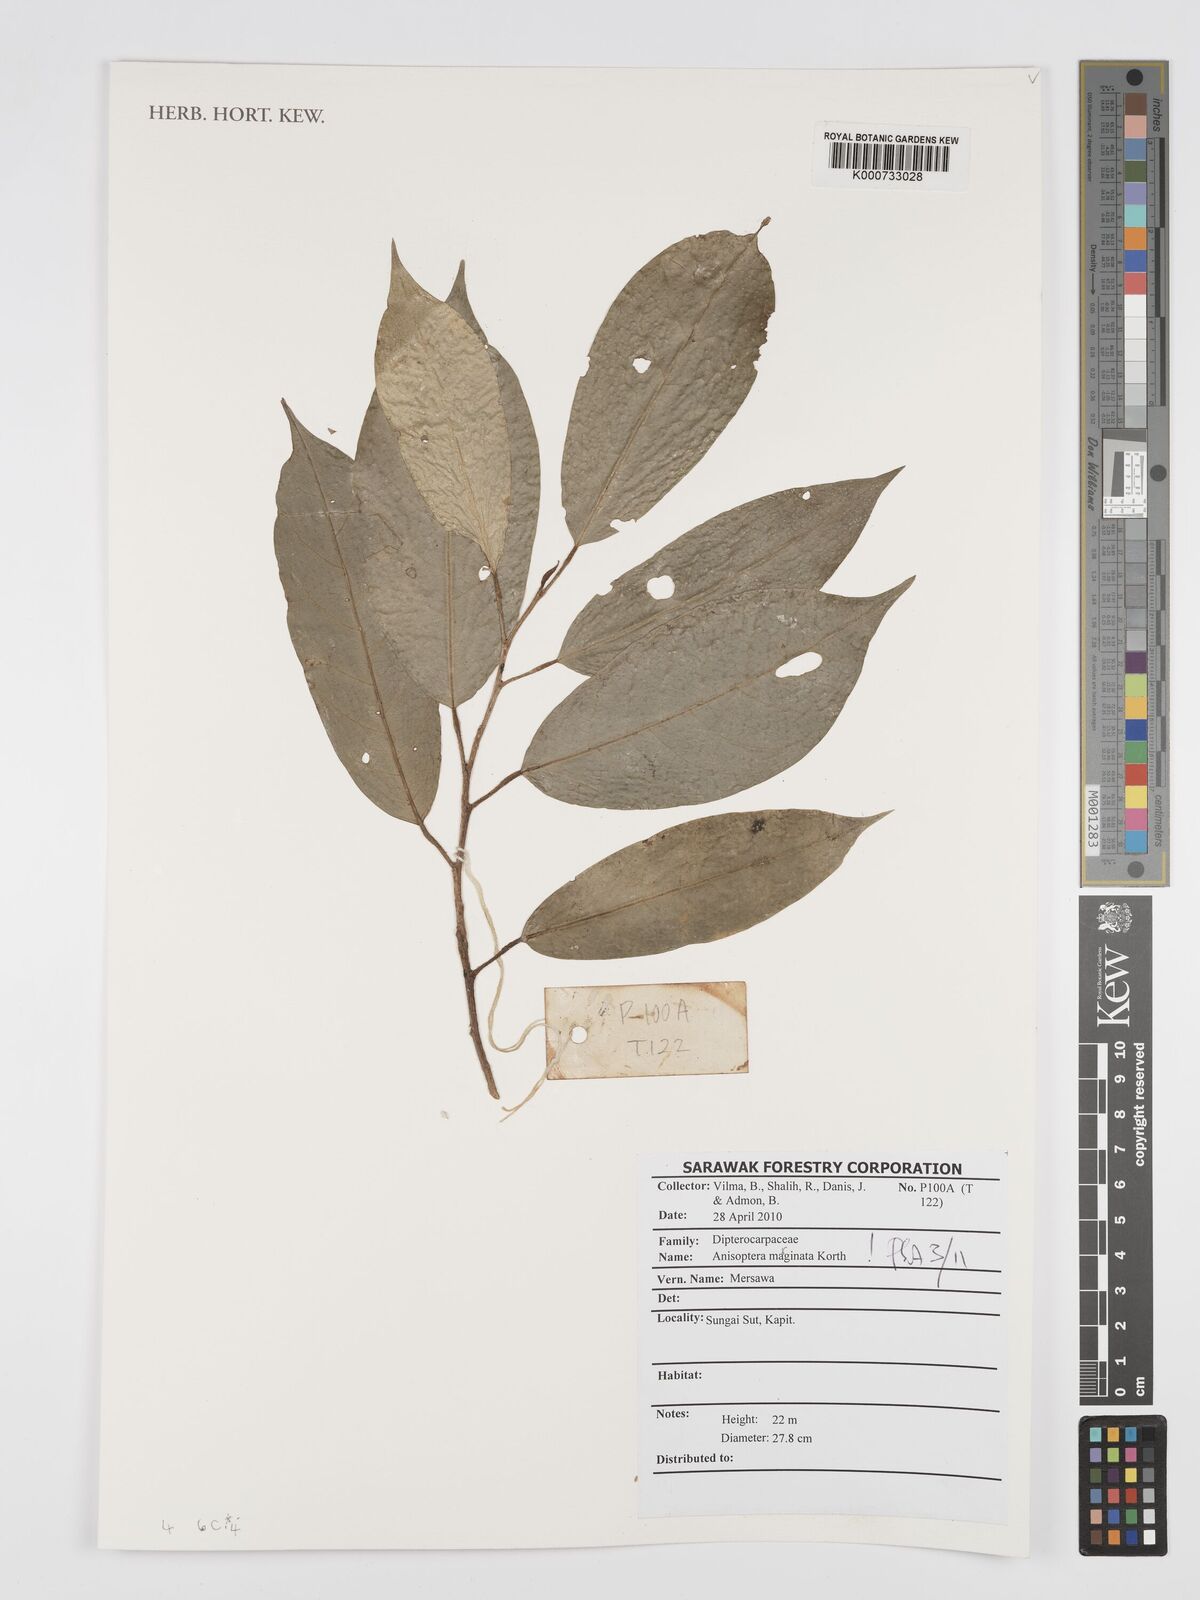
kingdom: Plantae
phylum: Tracheophyta
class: Magnoliopsida
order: Malvales
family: Dipterocarpaceae
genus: Anisoptera
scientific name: Anisoptera marginata
